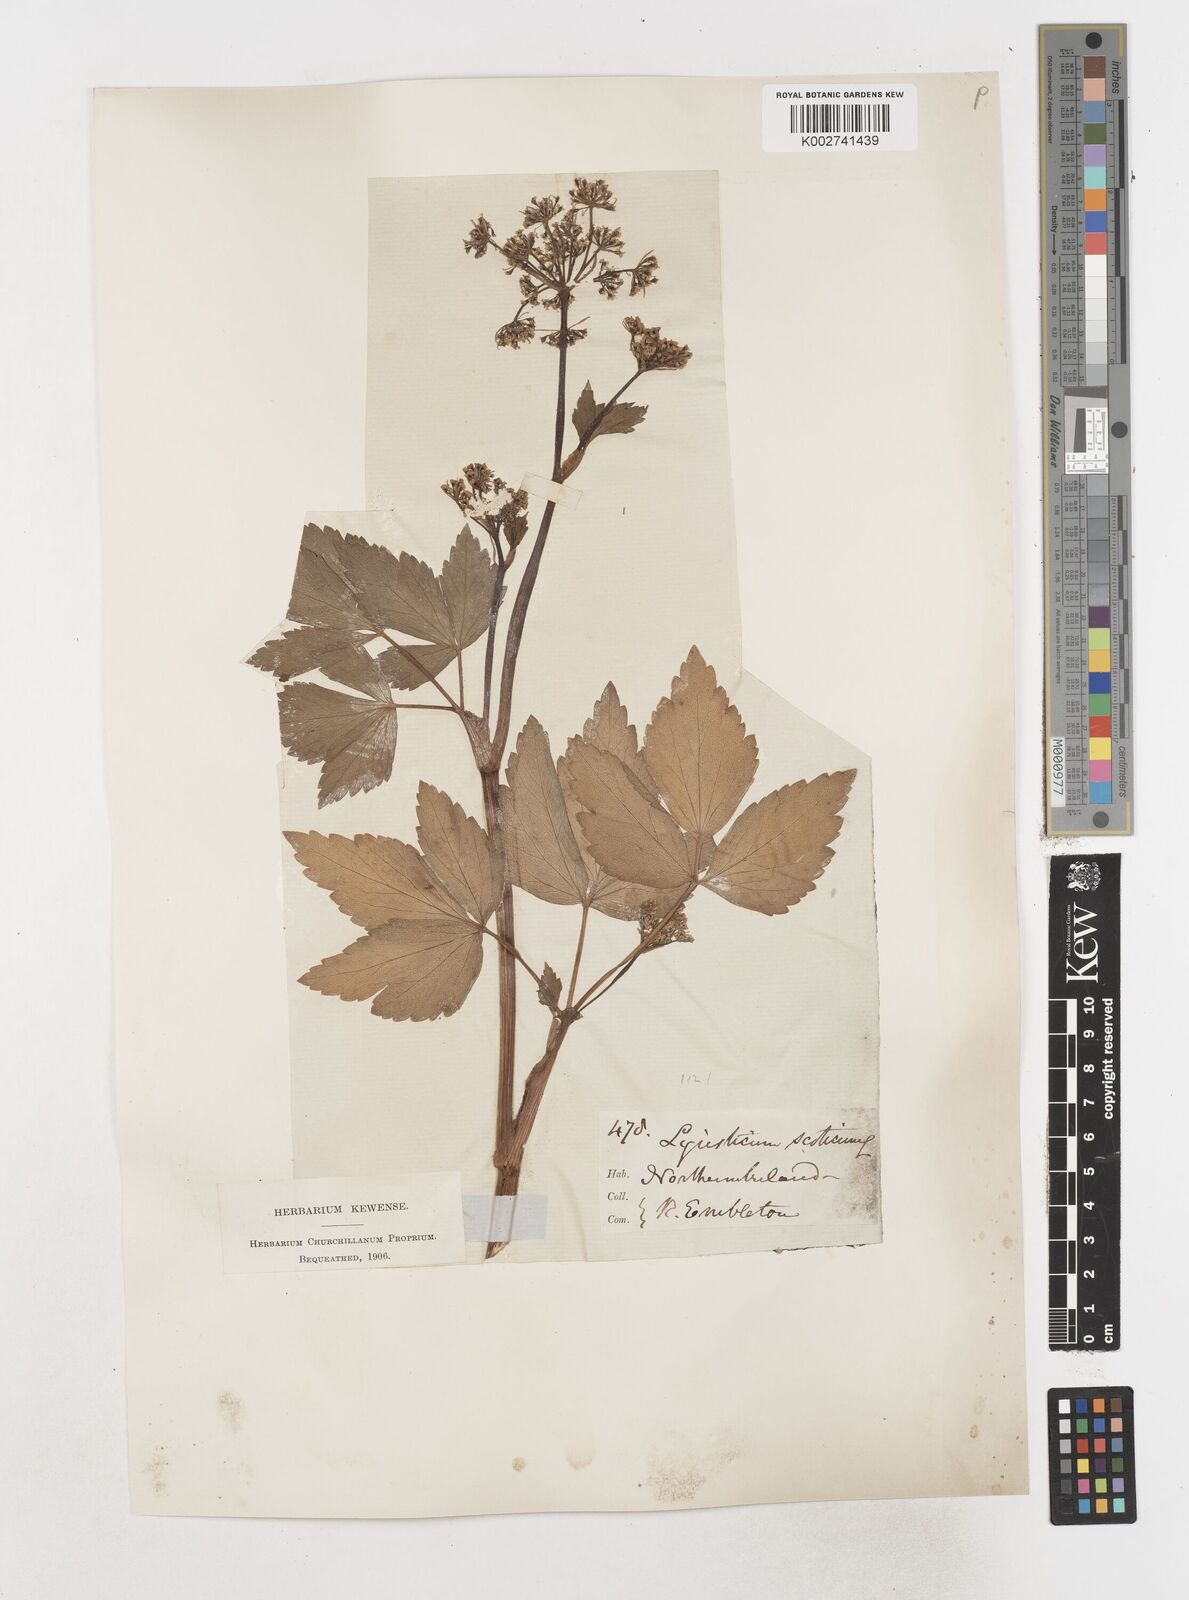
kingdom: Plantae
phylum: Tracheophyta
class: Magnoliopsida
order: Apiales
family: Apiaceae
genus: Ligusticum
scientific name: Ligusticum scothicum
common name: Beach lovage
